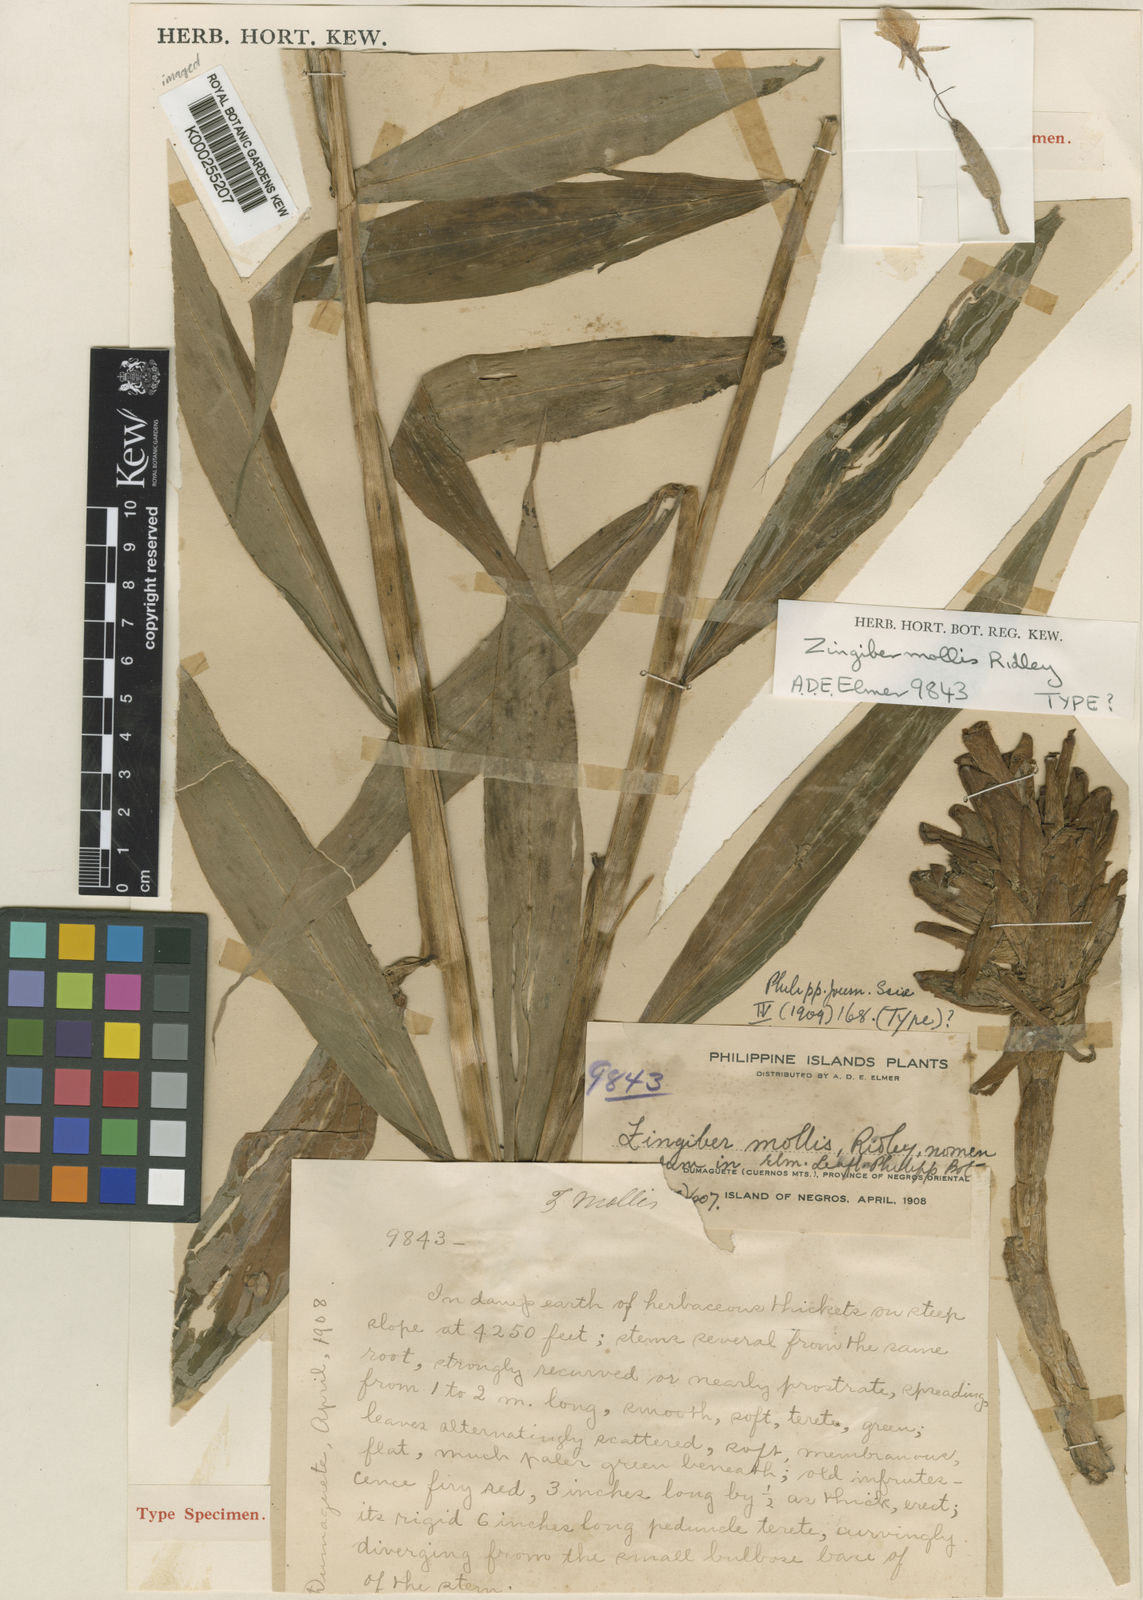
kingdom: Plantae
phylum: Tracheophyta
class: Liliopsida
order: Zingiberales
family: Zingiberaceae
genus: Zingiber
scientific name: Zingiber molle
